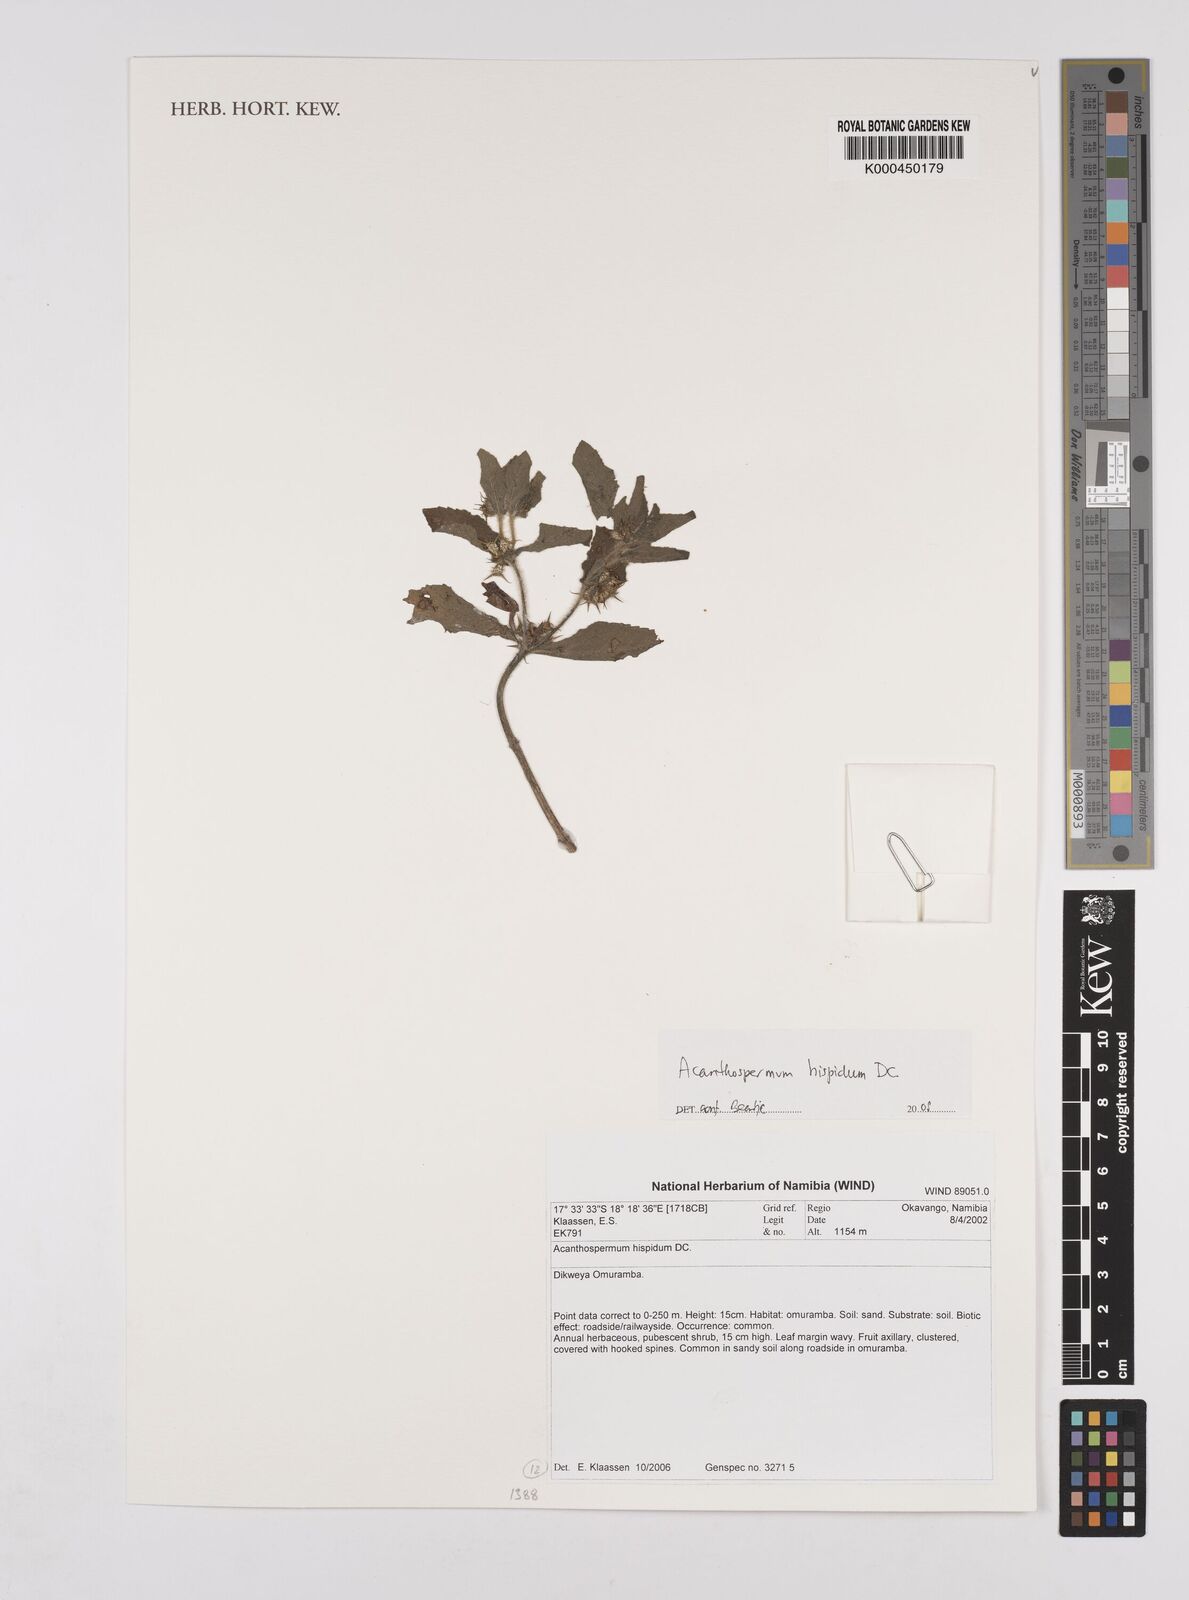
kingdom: Plantae
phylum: Tracheophyta
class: Magnoliopsida
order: Asterales
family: Asteraceae
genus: Acanthospermum
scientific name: Acanthospermum hispidum
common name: Hispid starbur
